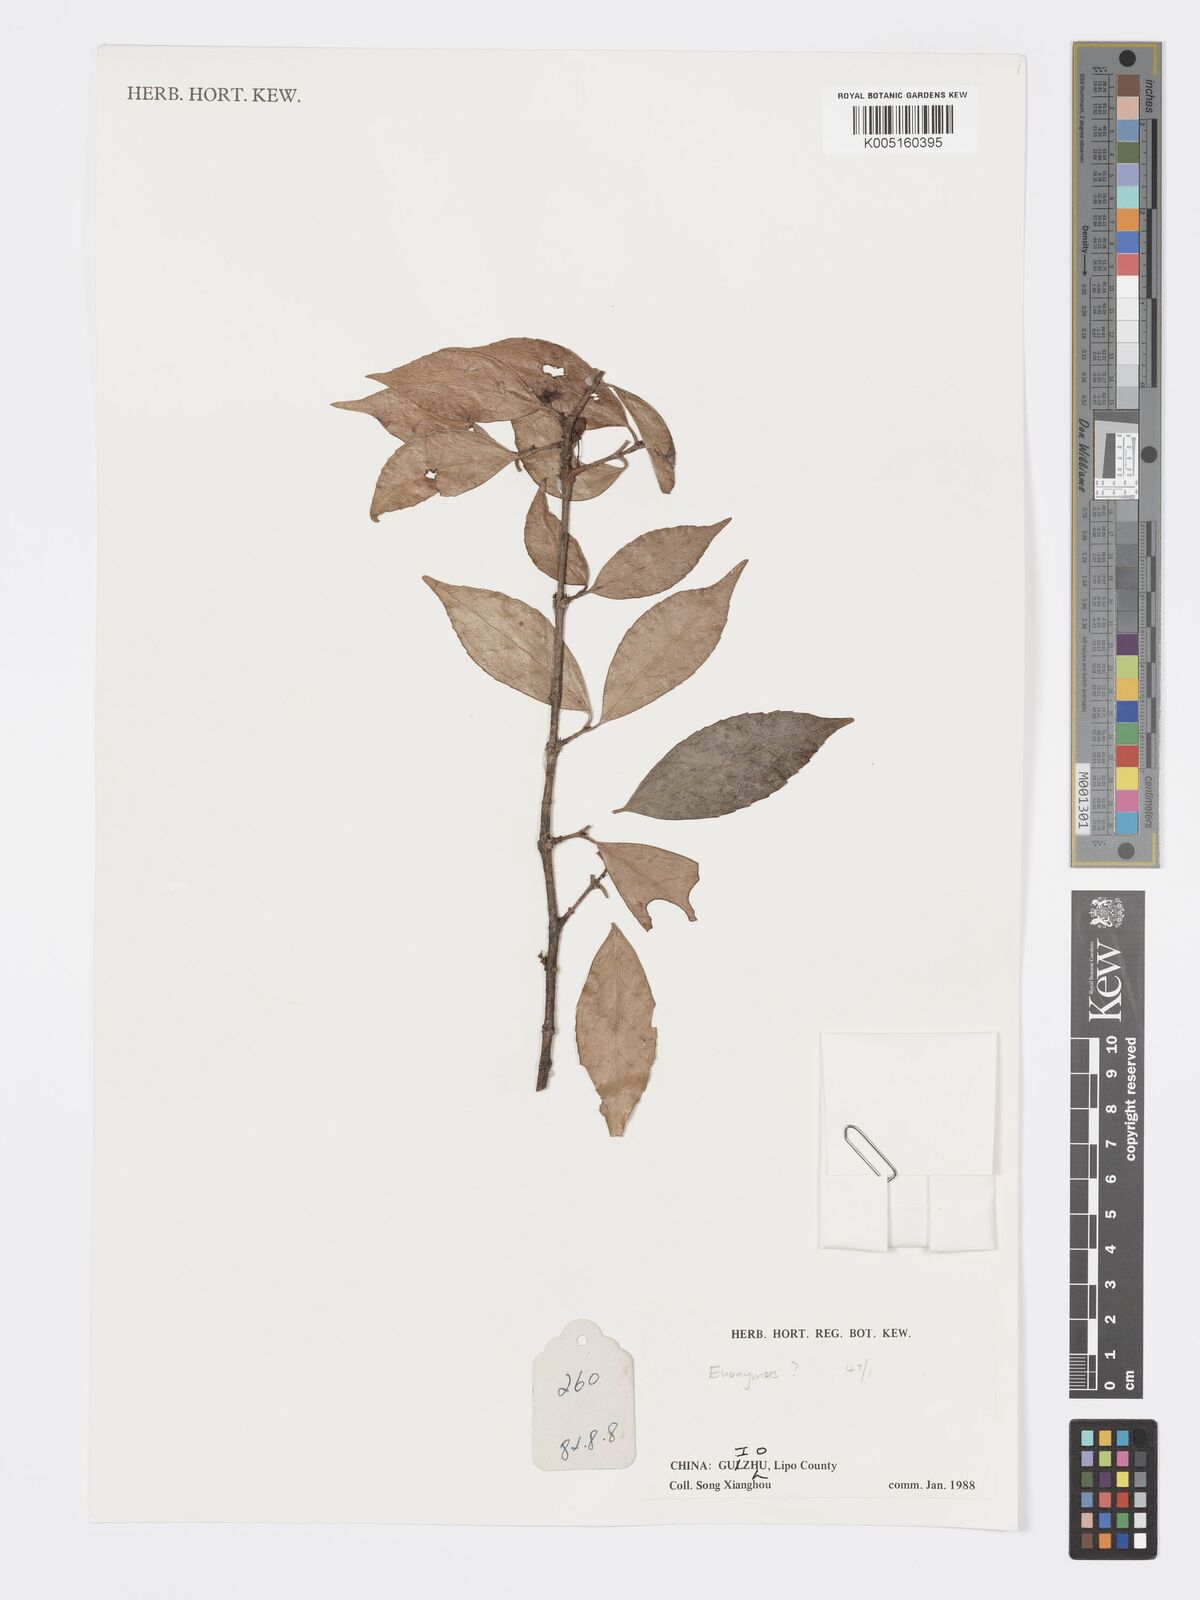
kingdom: Plantae
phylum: Tracheophyta
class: Magnoliopsida
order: Celastrales
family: Celastraceae
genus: Euonymus
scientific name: Euonymus
